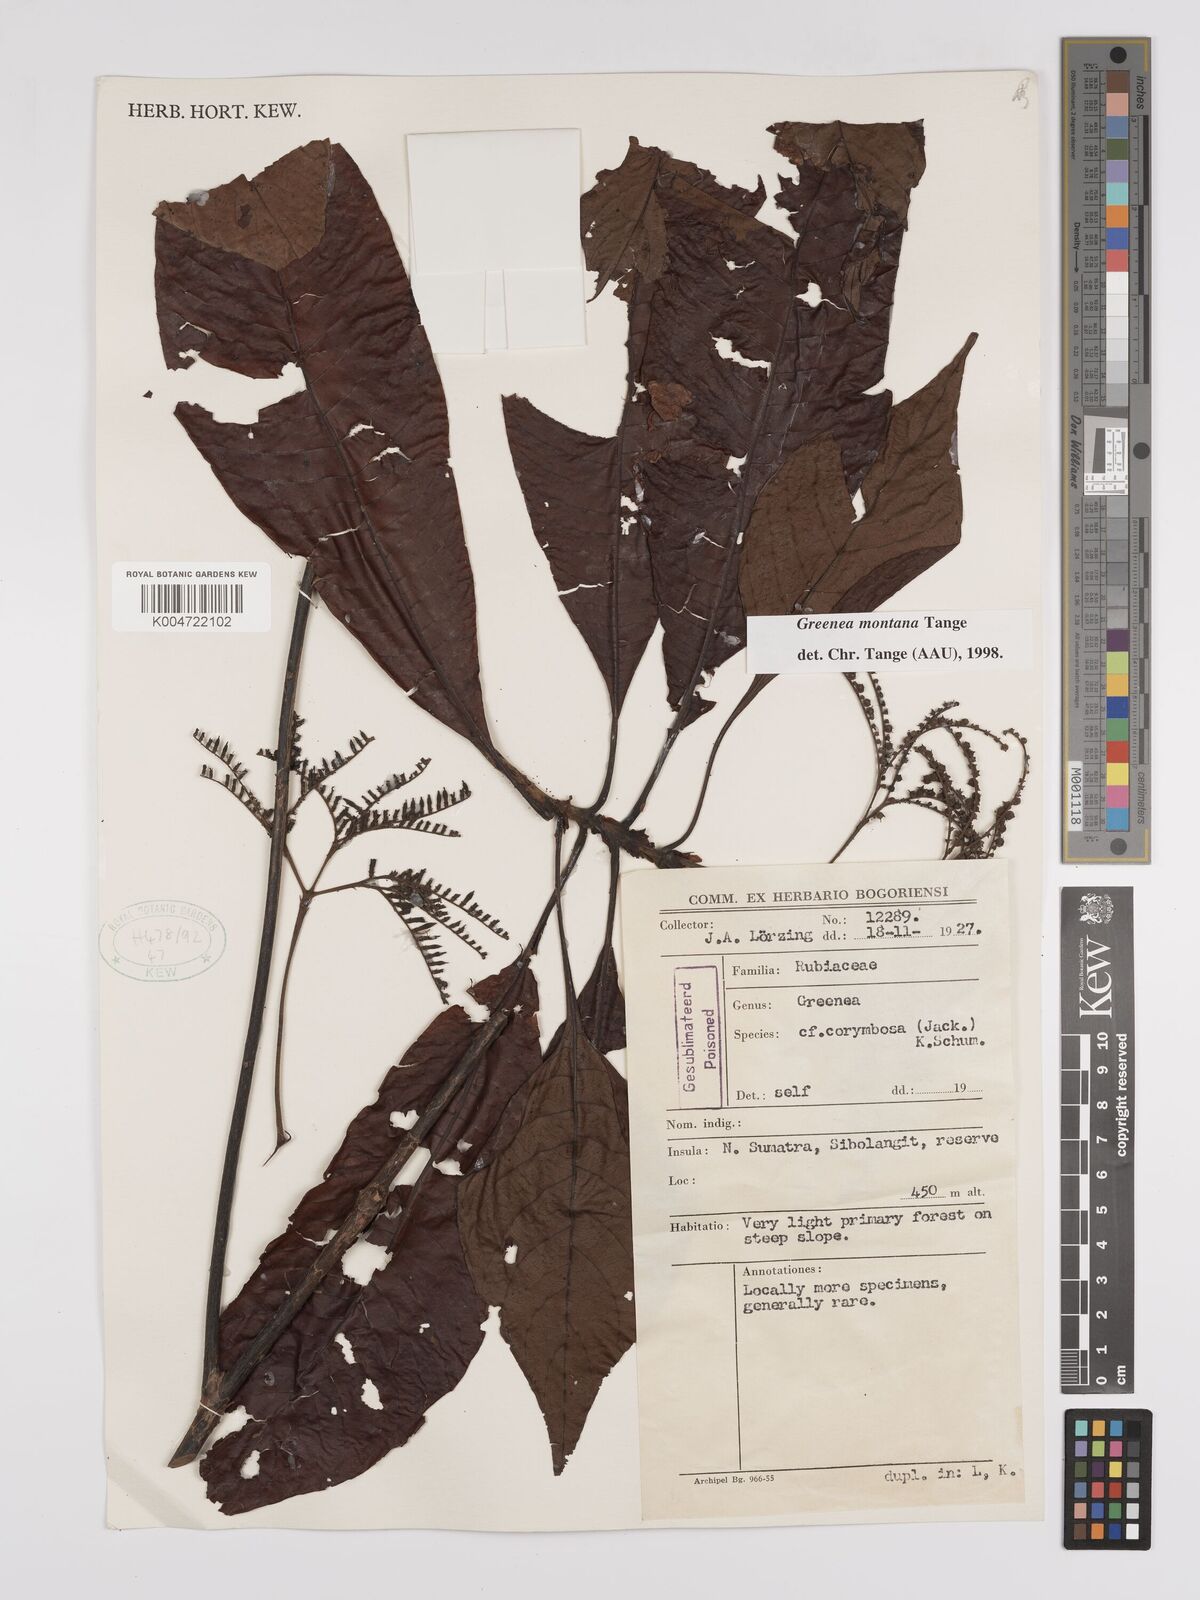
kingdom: Plantae
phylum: Tracheophyta
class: Magnoliopsida
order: Gentianales
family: Rubiaceae
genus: Greenea
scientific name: Greenea montana
